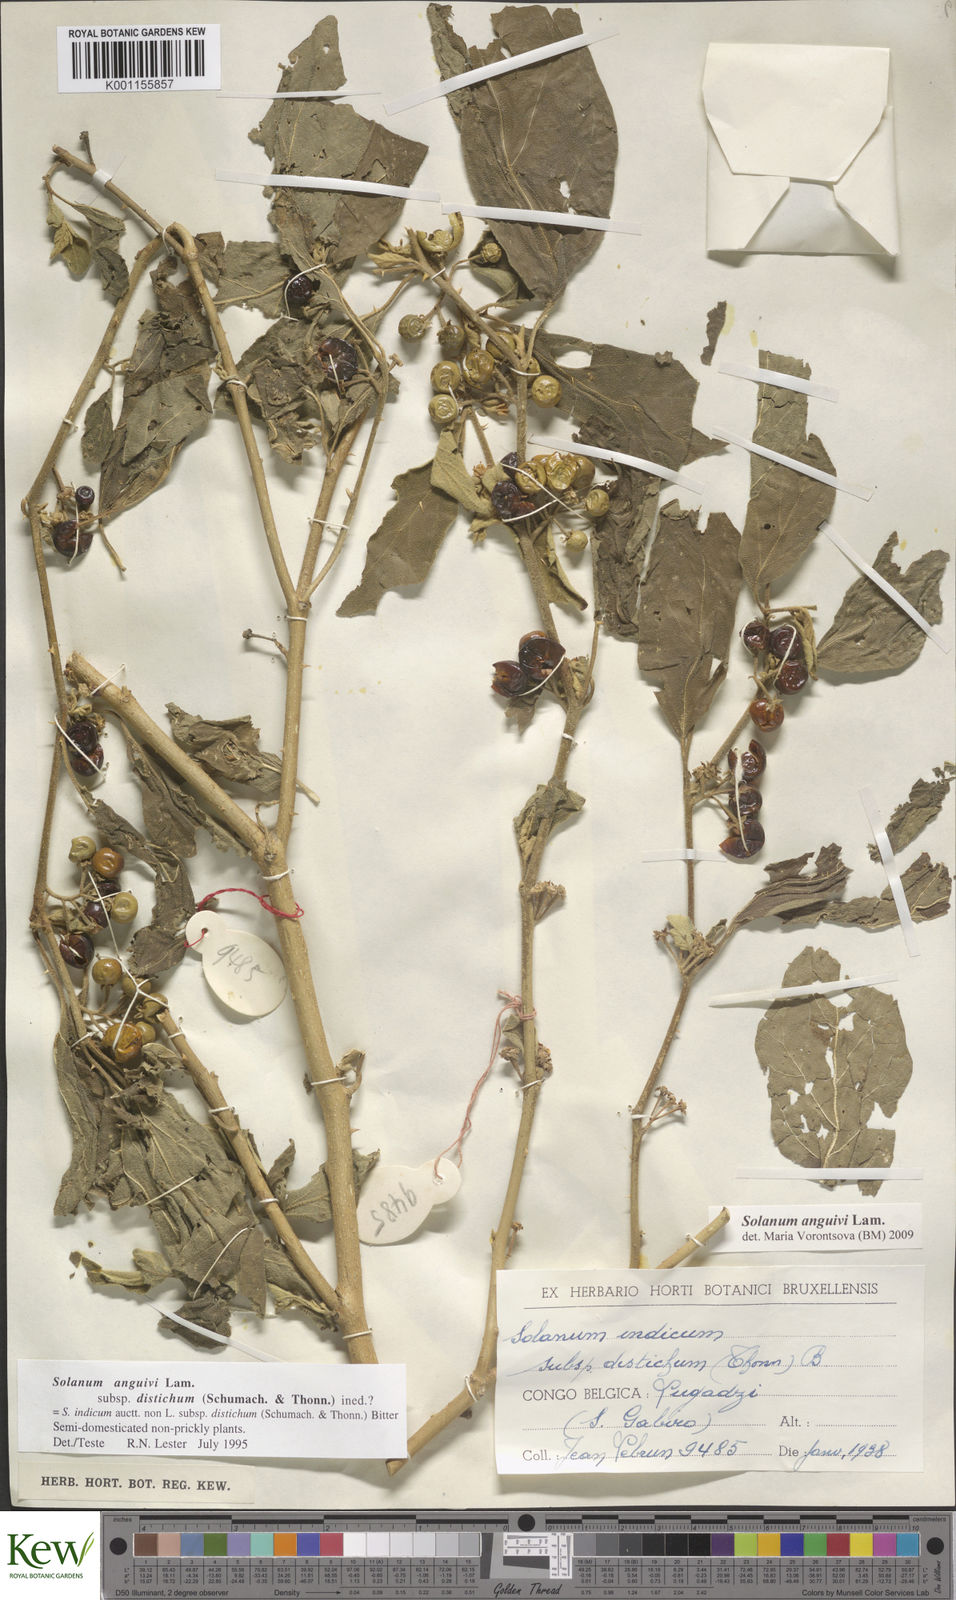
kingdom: Plantae
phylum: Tracheophyta
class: Magnoliopsida
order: Solanales
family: Solanaceae
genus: Solanum
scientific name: Solanum anguivi
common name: Forest bitterberry
